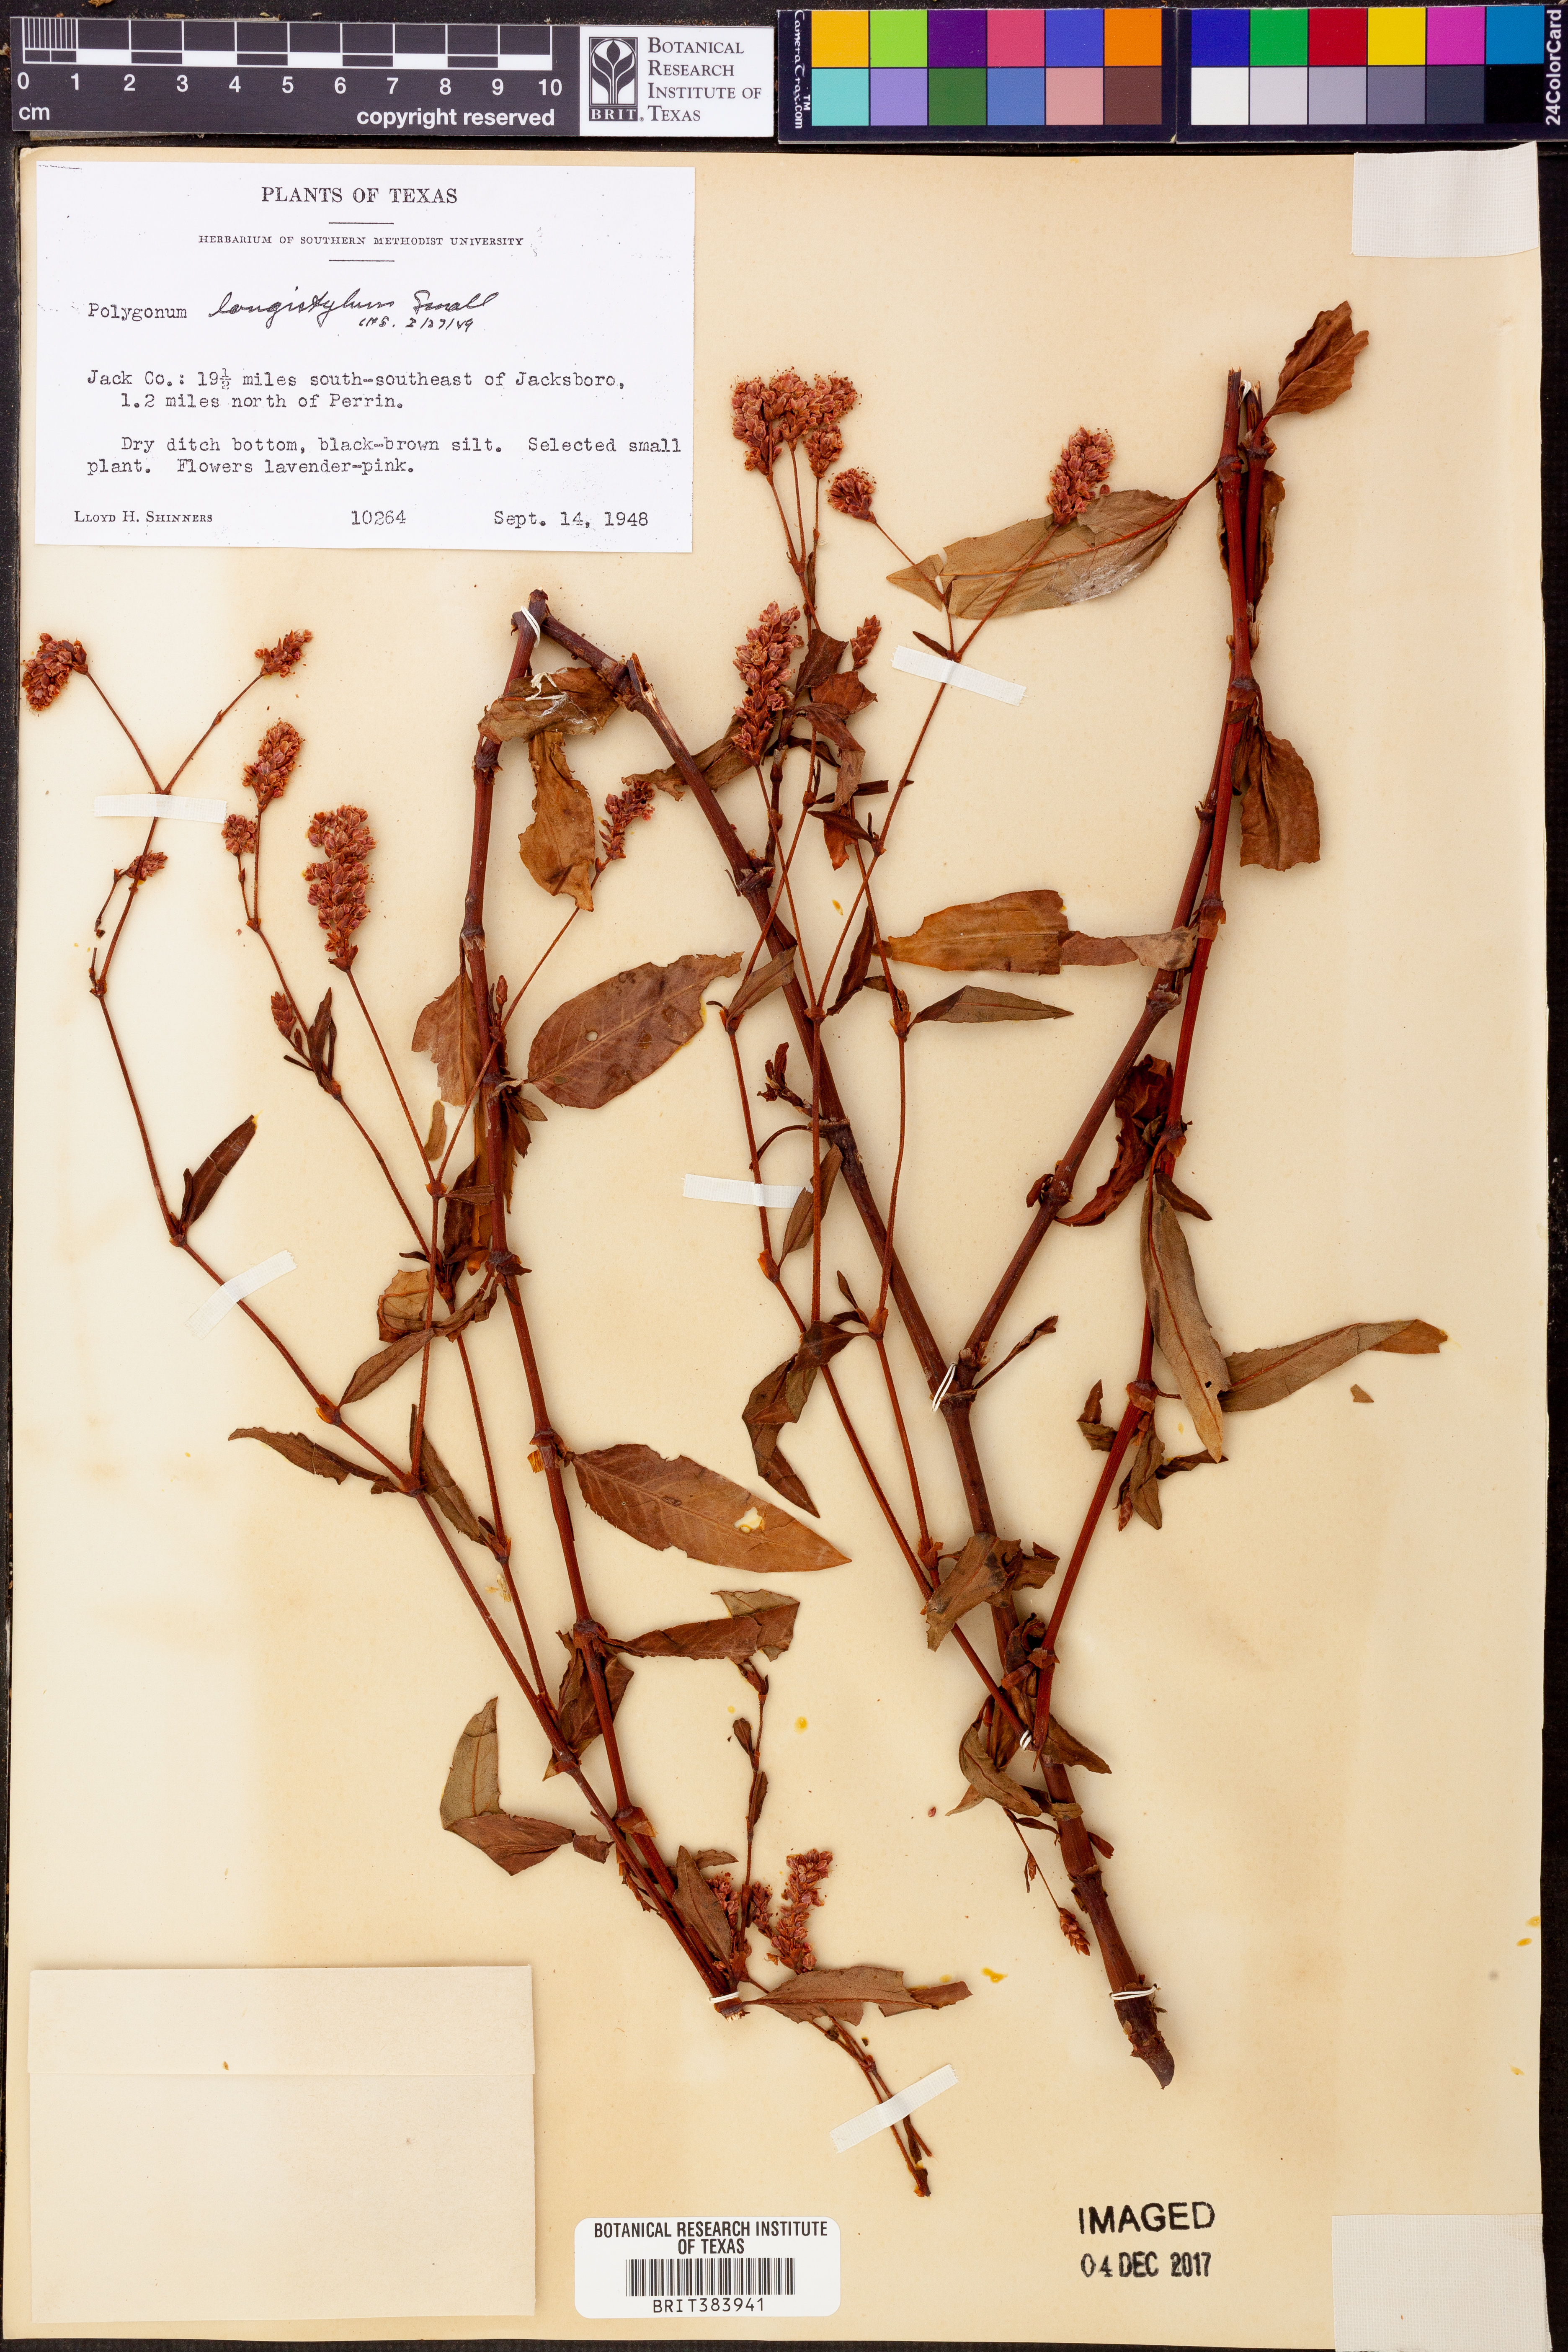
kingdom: Plantae
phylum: Tracheophyta
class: Magnoliopsida
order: Caryophyllales
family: Polygonaceae
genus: Persicaria
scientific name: Persicaria bicornis
